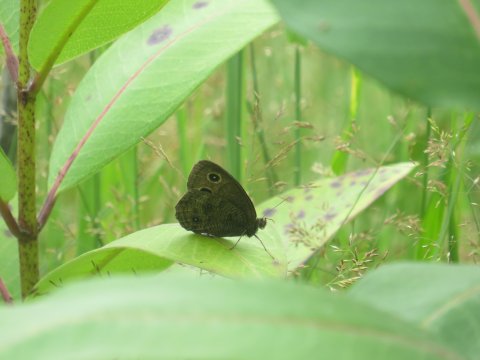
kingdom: Animalia
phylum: Arthropoda
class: Insecta
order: Lepidoptera
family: Nymphalidae
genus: Cercyonis
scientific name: Cercyonis pegala
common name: Common Wood-Nymph
